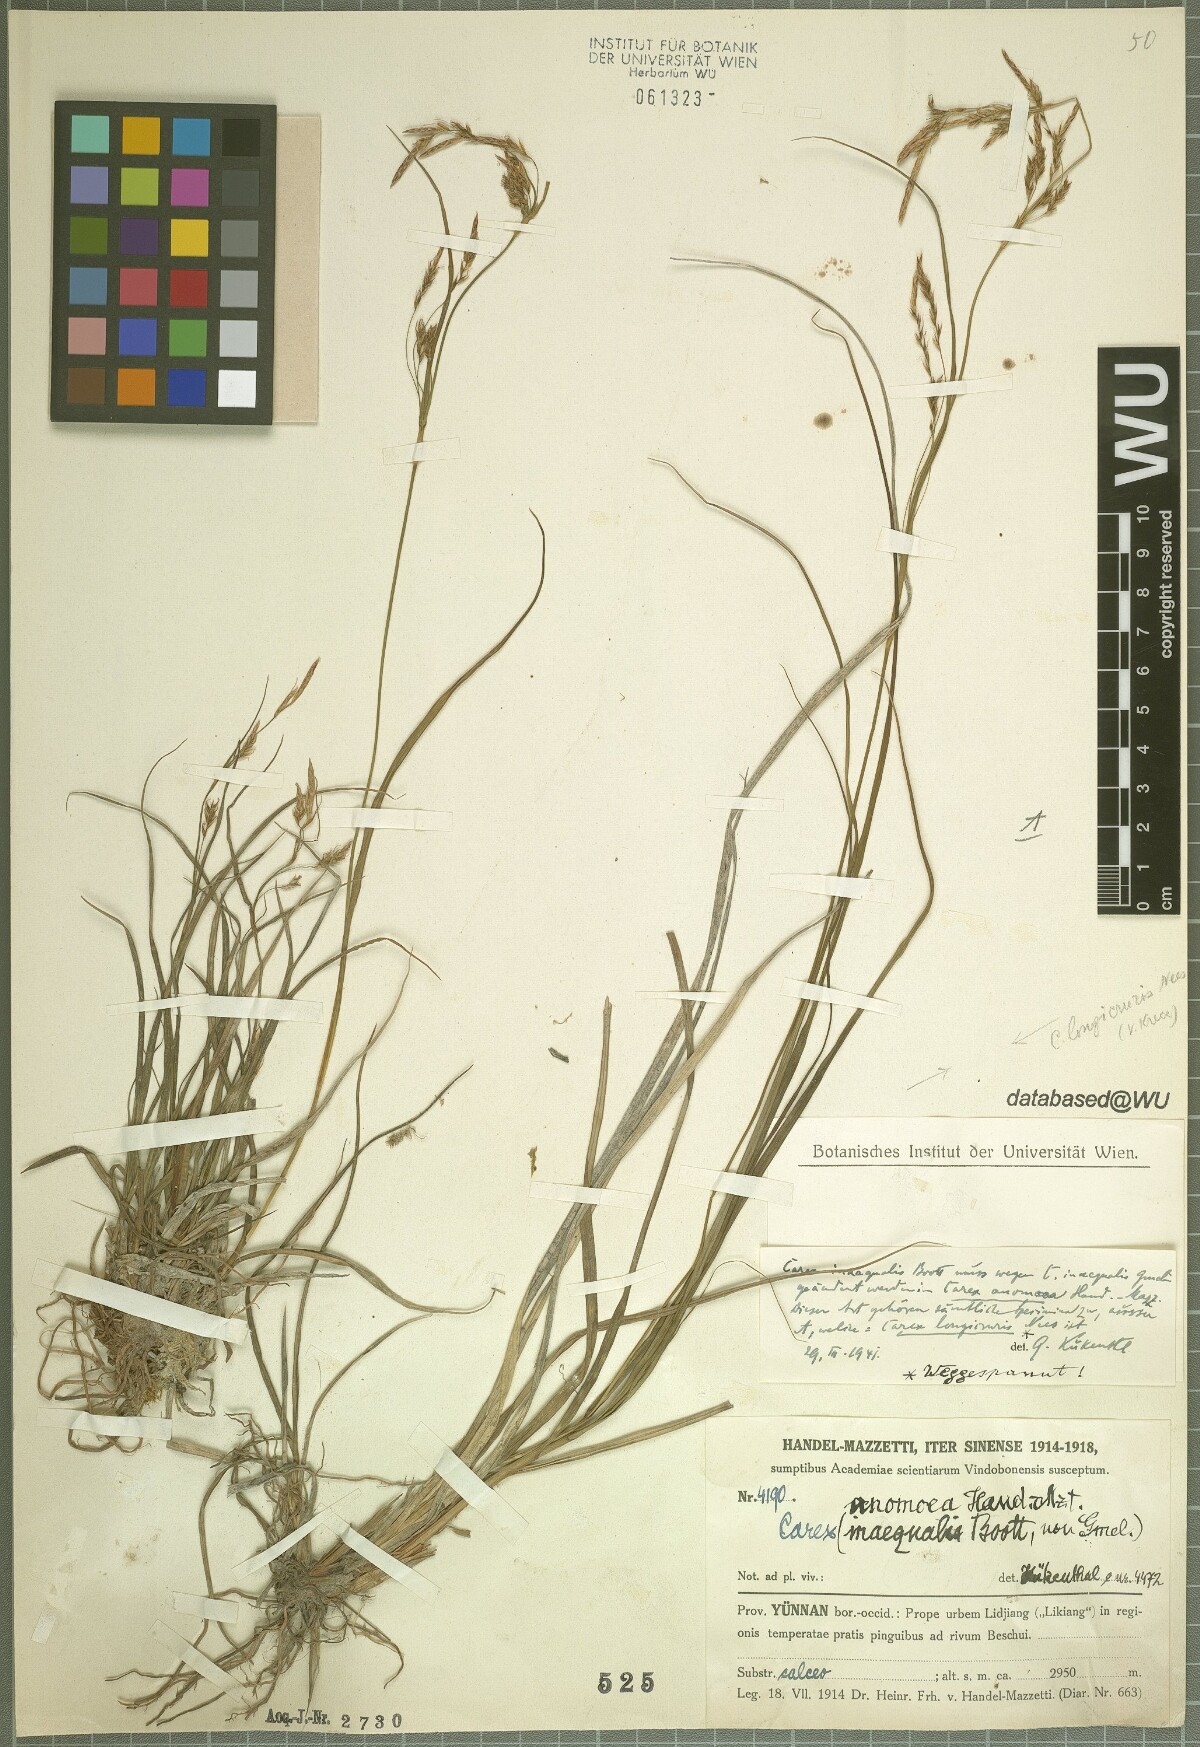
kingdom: Plantae
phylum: Tracheophyta
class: Liliopsida
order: Poales
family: Cyperaceae
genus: Carex
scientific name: Carex anomoea
